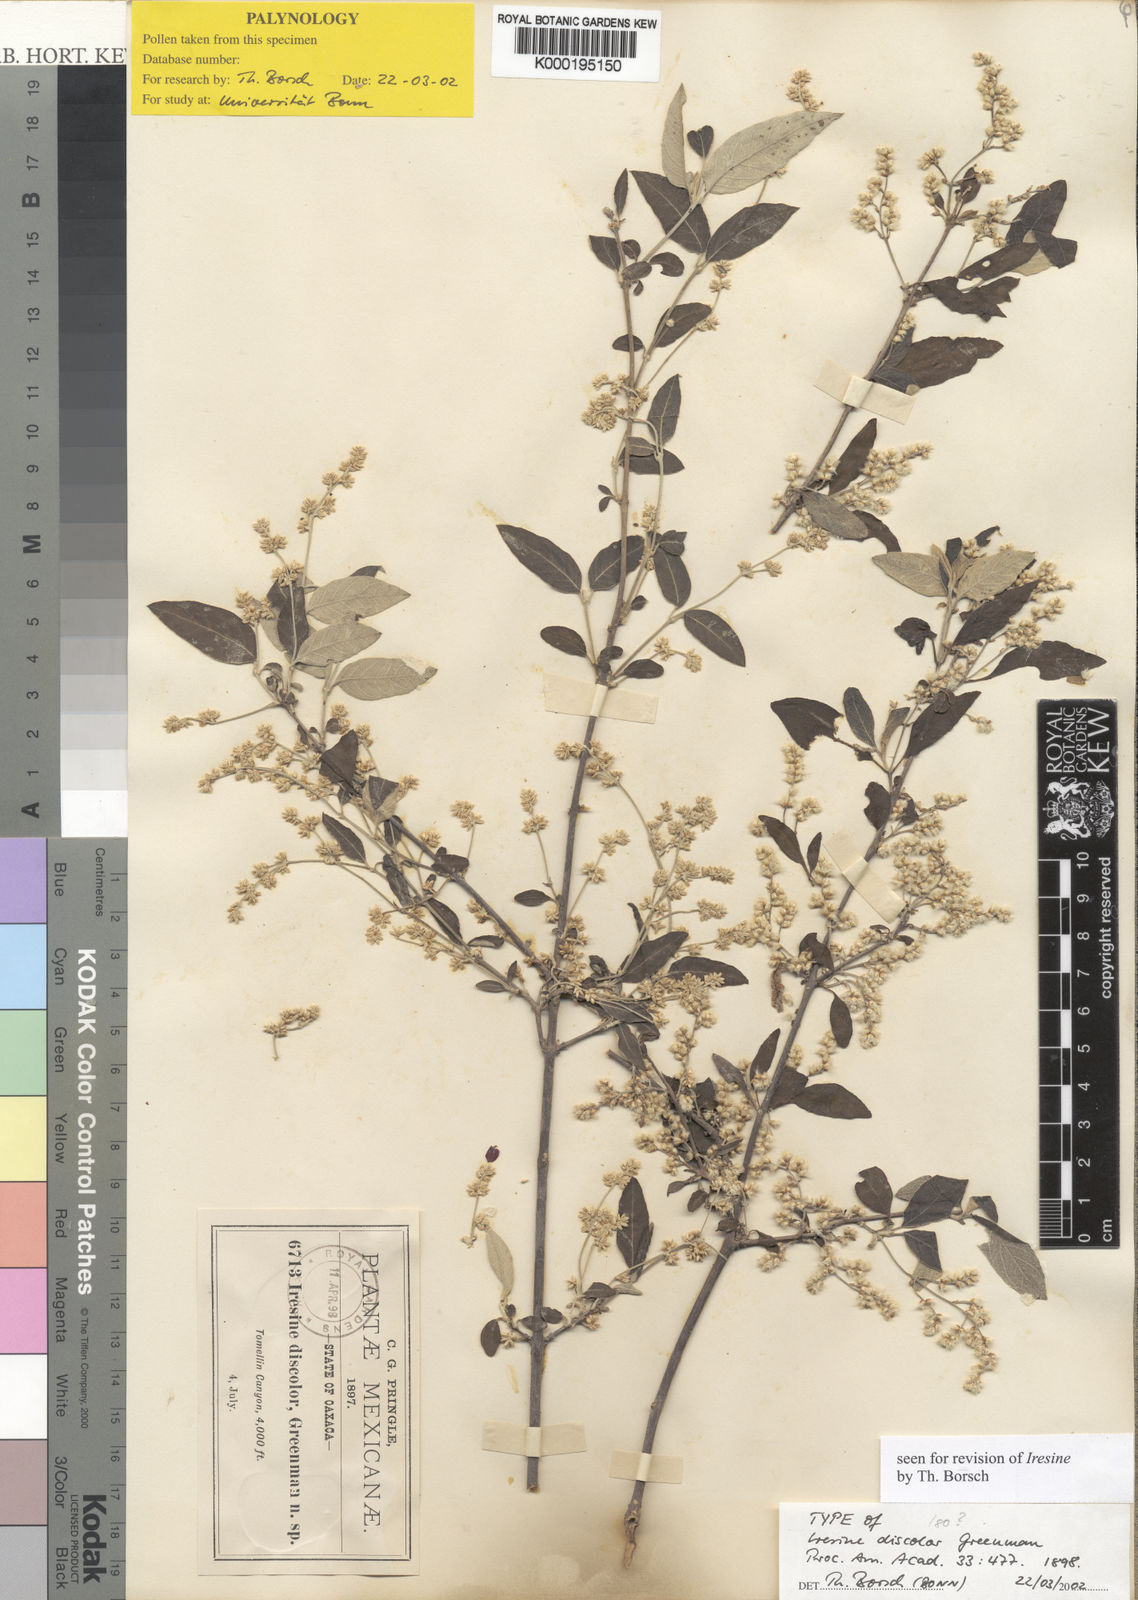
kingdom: Plantae
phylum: Tracheophyta
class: Magnoliopsida
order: Caryophyllales
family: Amaranthaceae
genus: Iresine
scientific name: Iresine discolor
